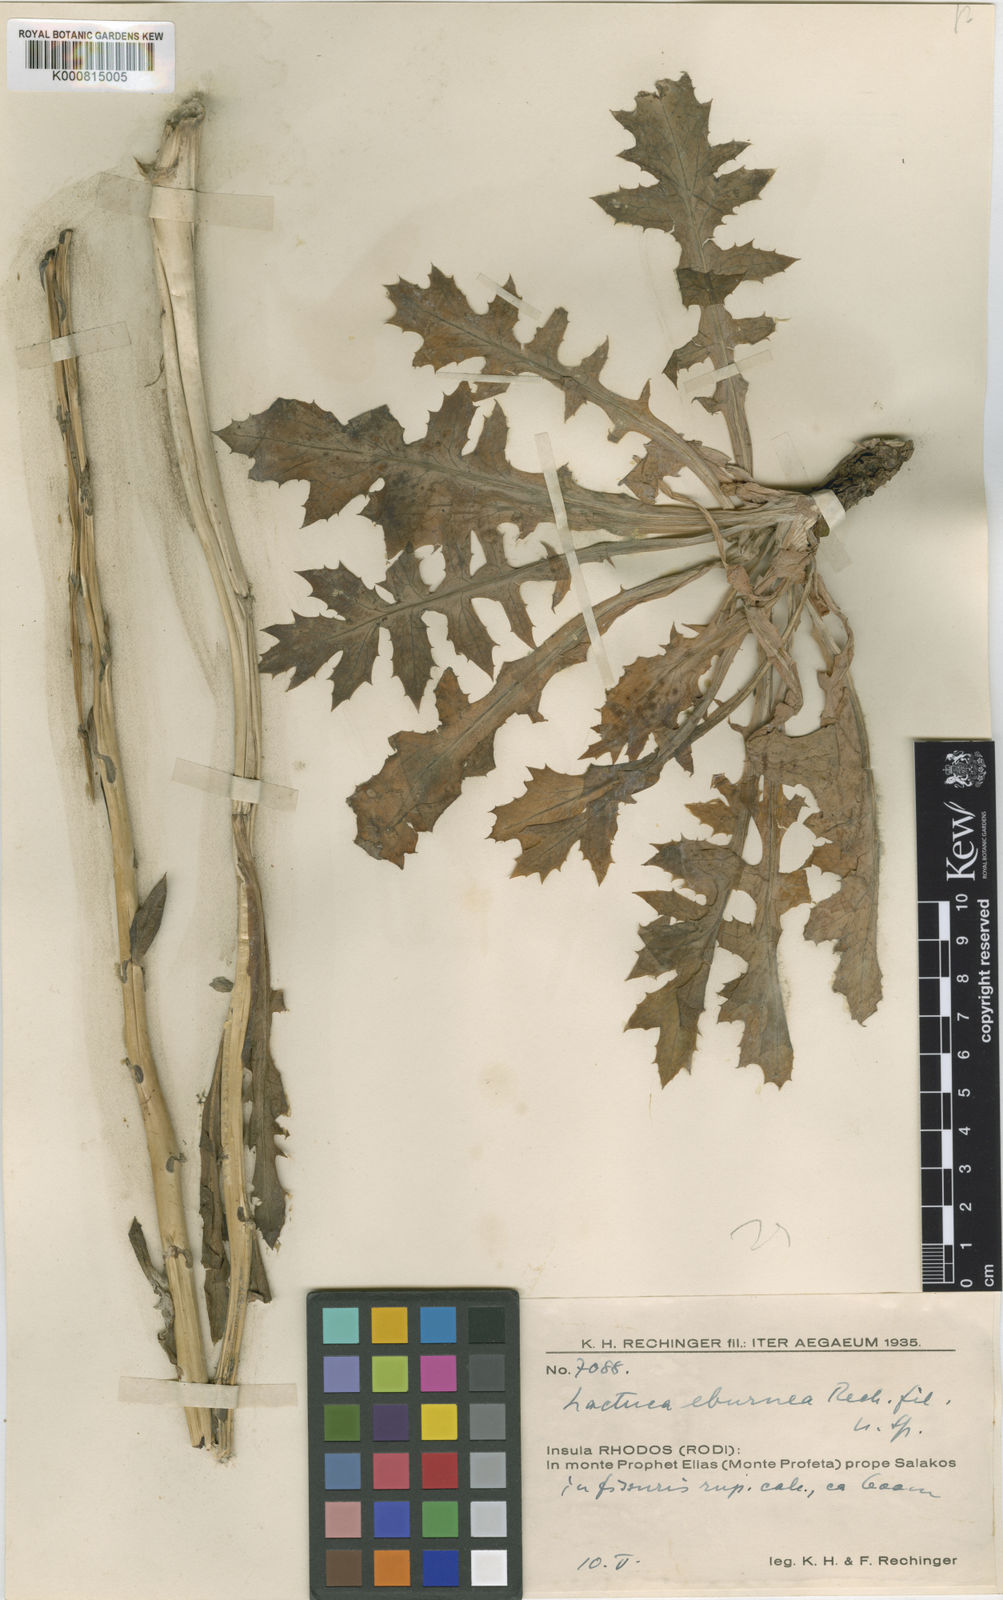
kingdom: Plantae
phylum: Tracheophyta
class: Magnoliopsida
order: Asterales
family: Asteraceae
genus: Lactuca
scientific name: Lactuca acanthifolia
